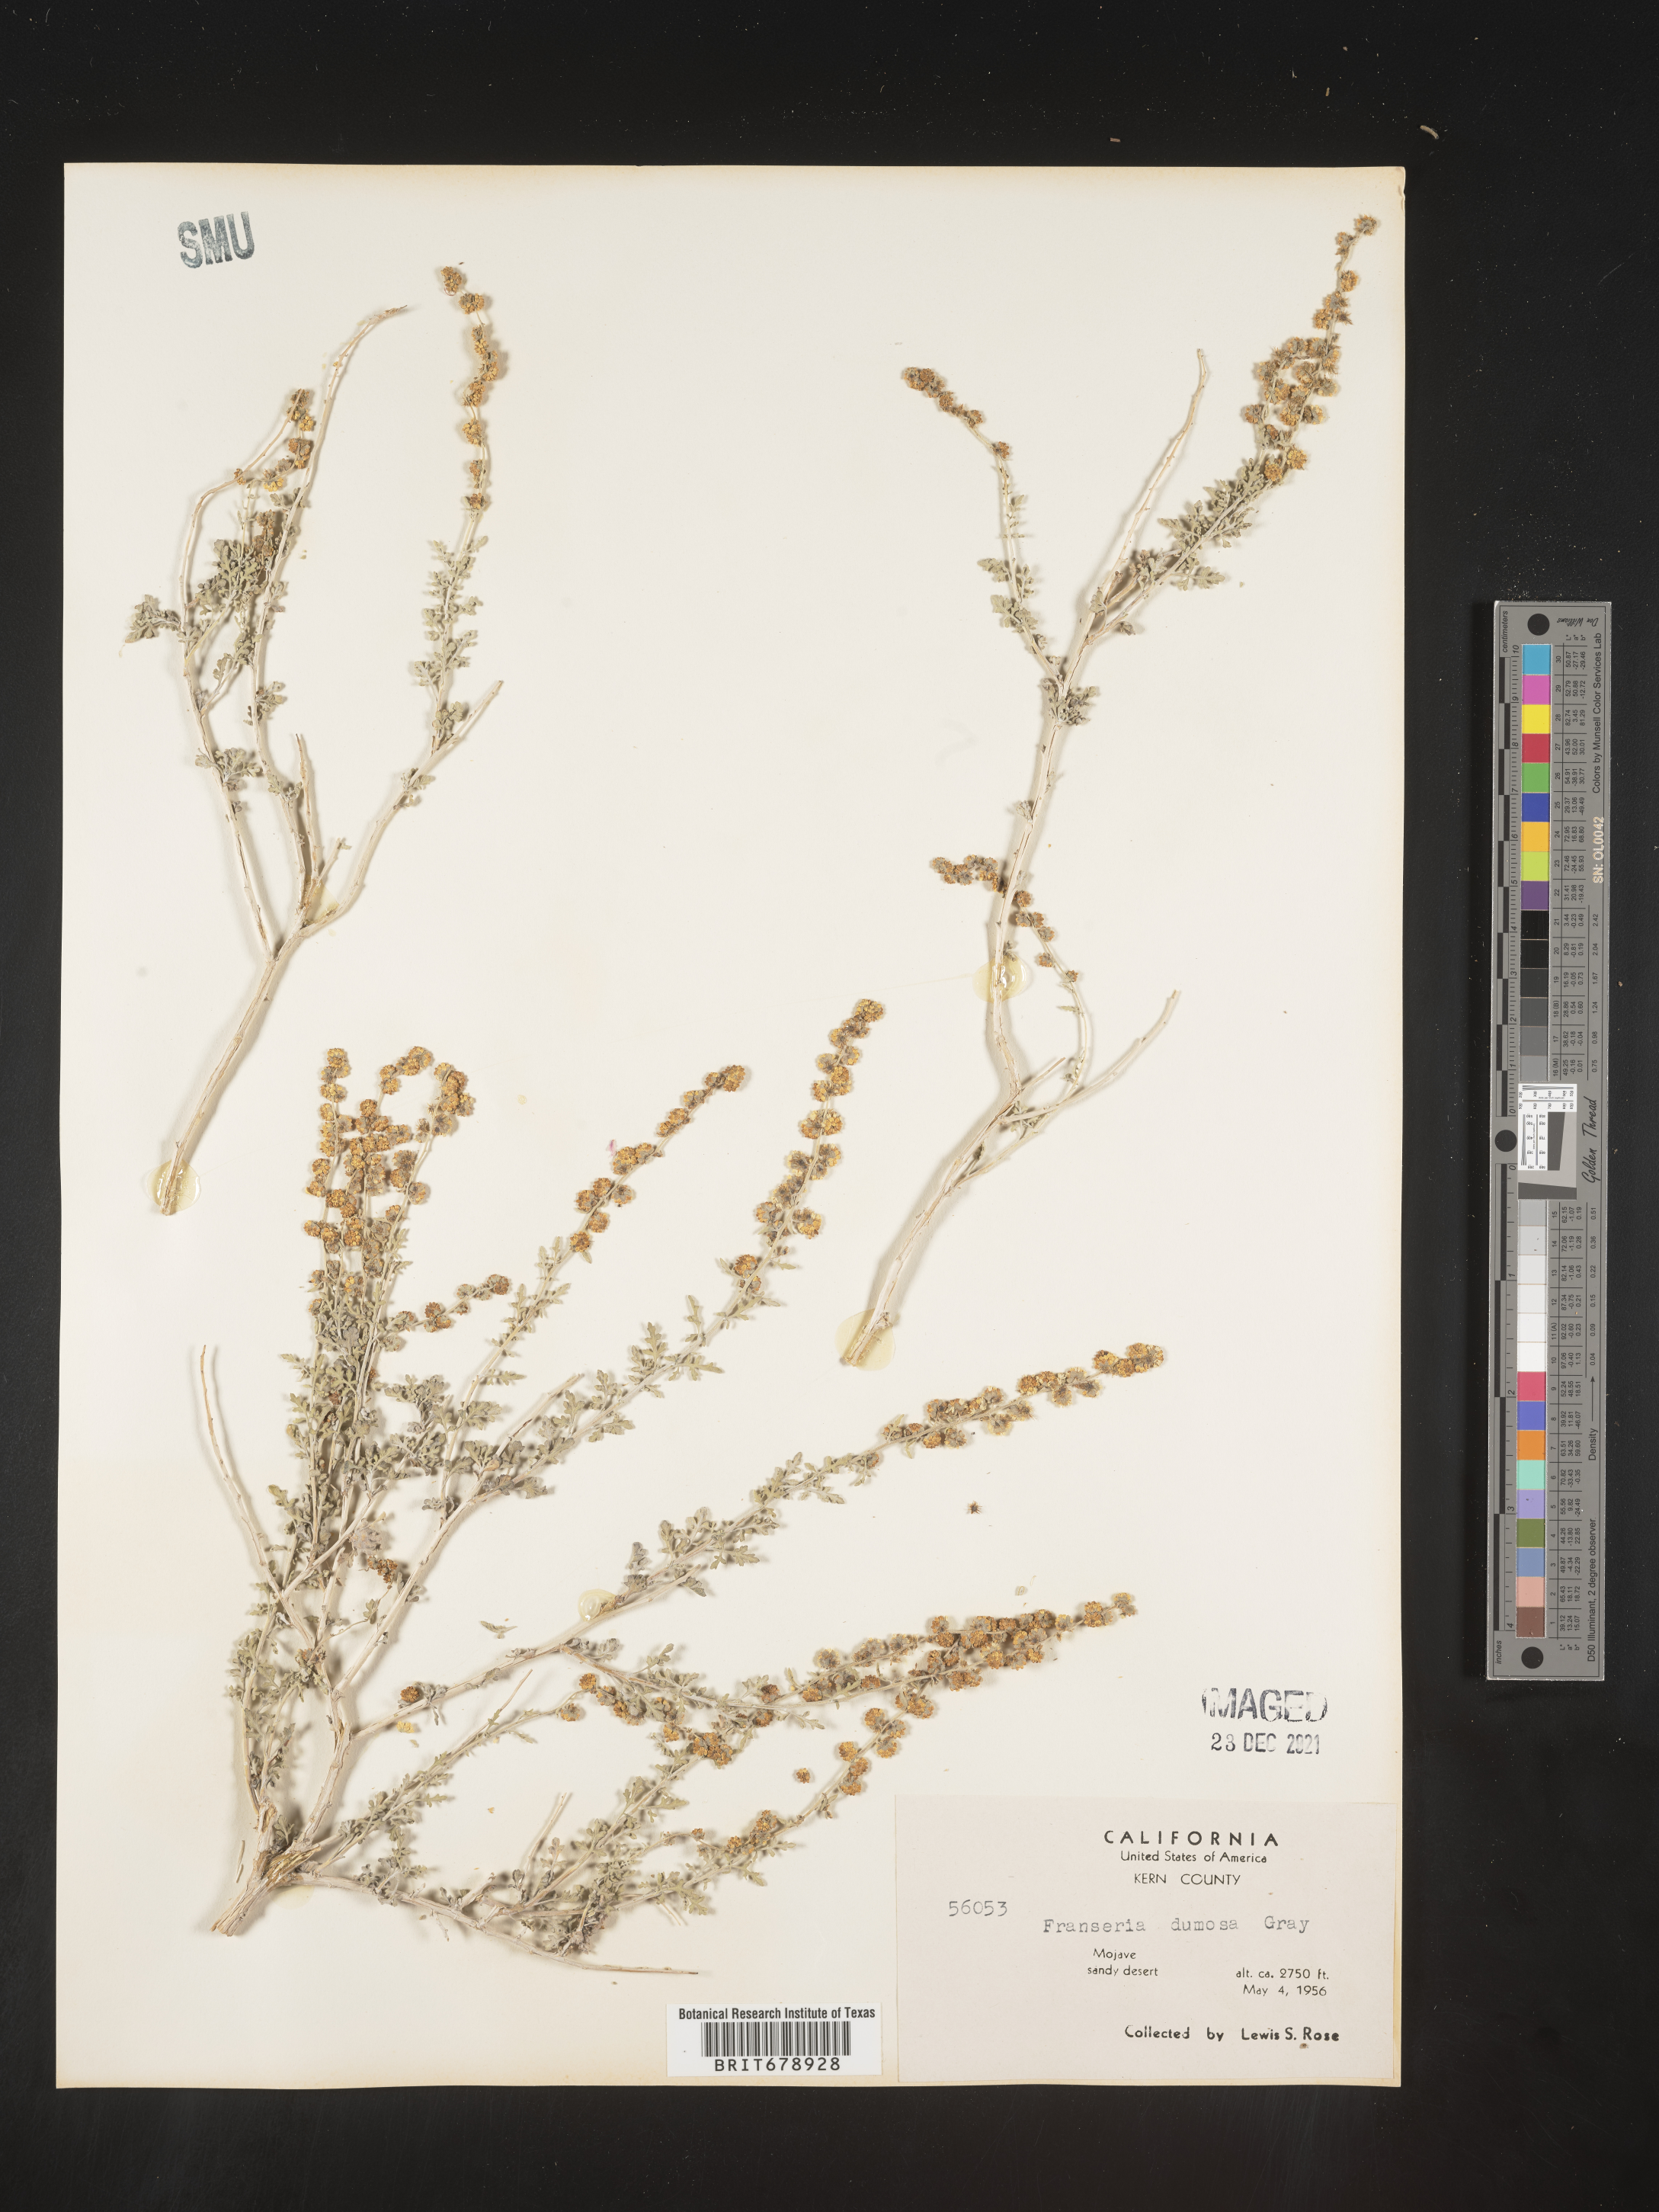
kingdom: Plantae
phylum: Tracheophyta
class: Magnoliopsida
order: Asterales
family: Asteraceae
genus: Ambrosia
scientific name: Ambrosia dumosa
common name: Bur-sage
